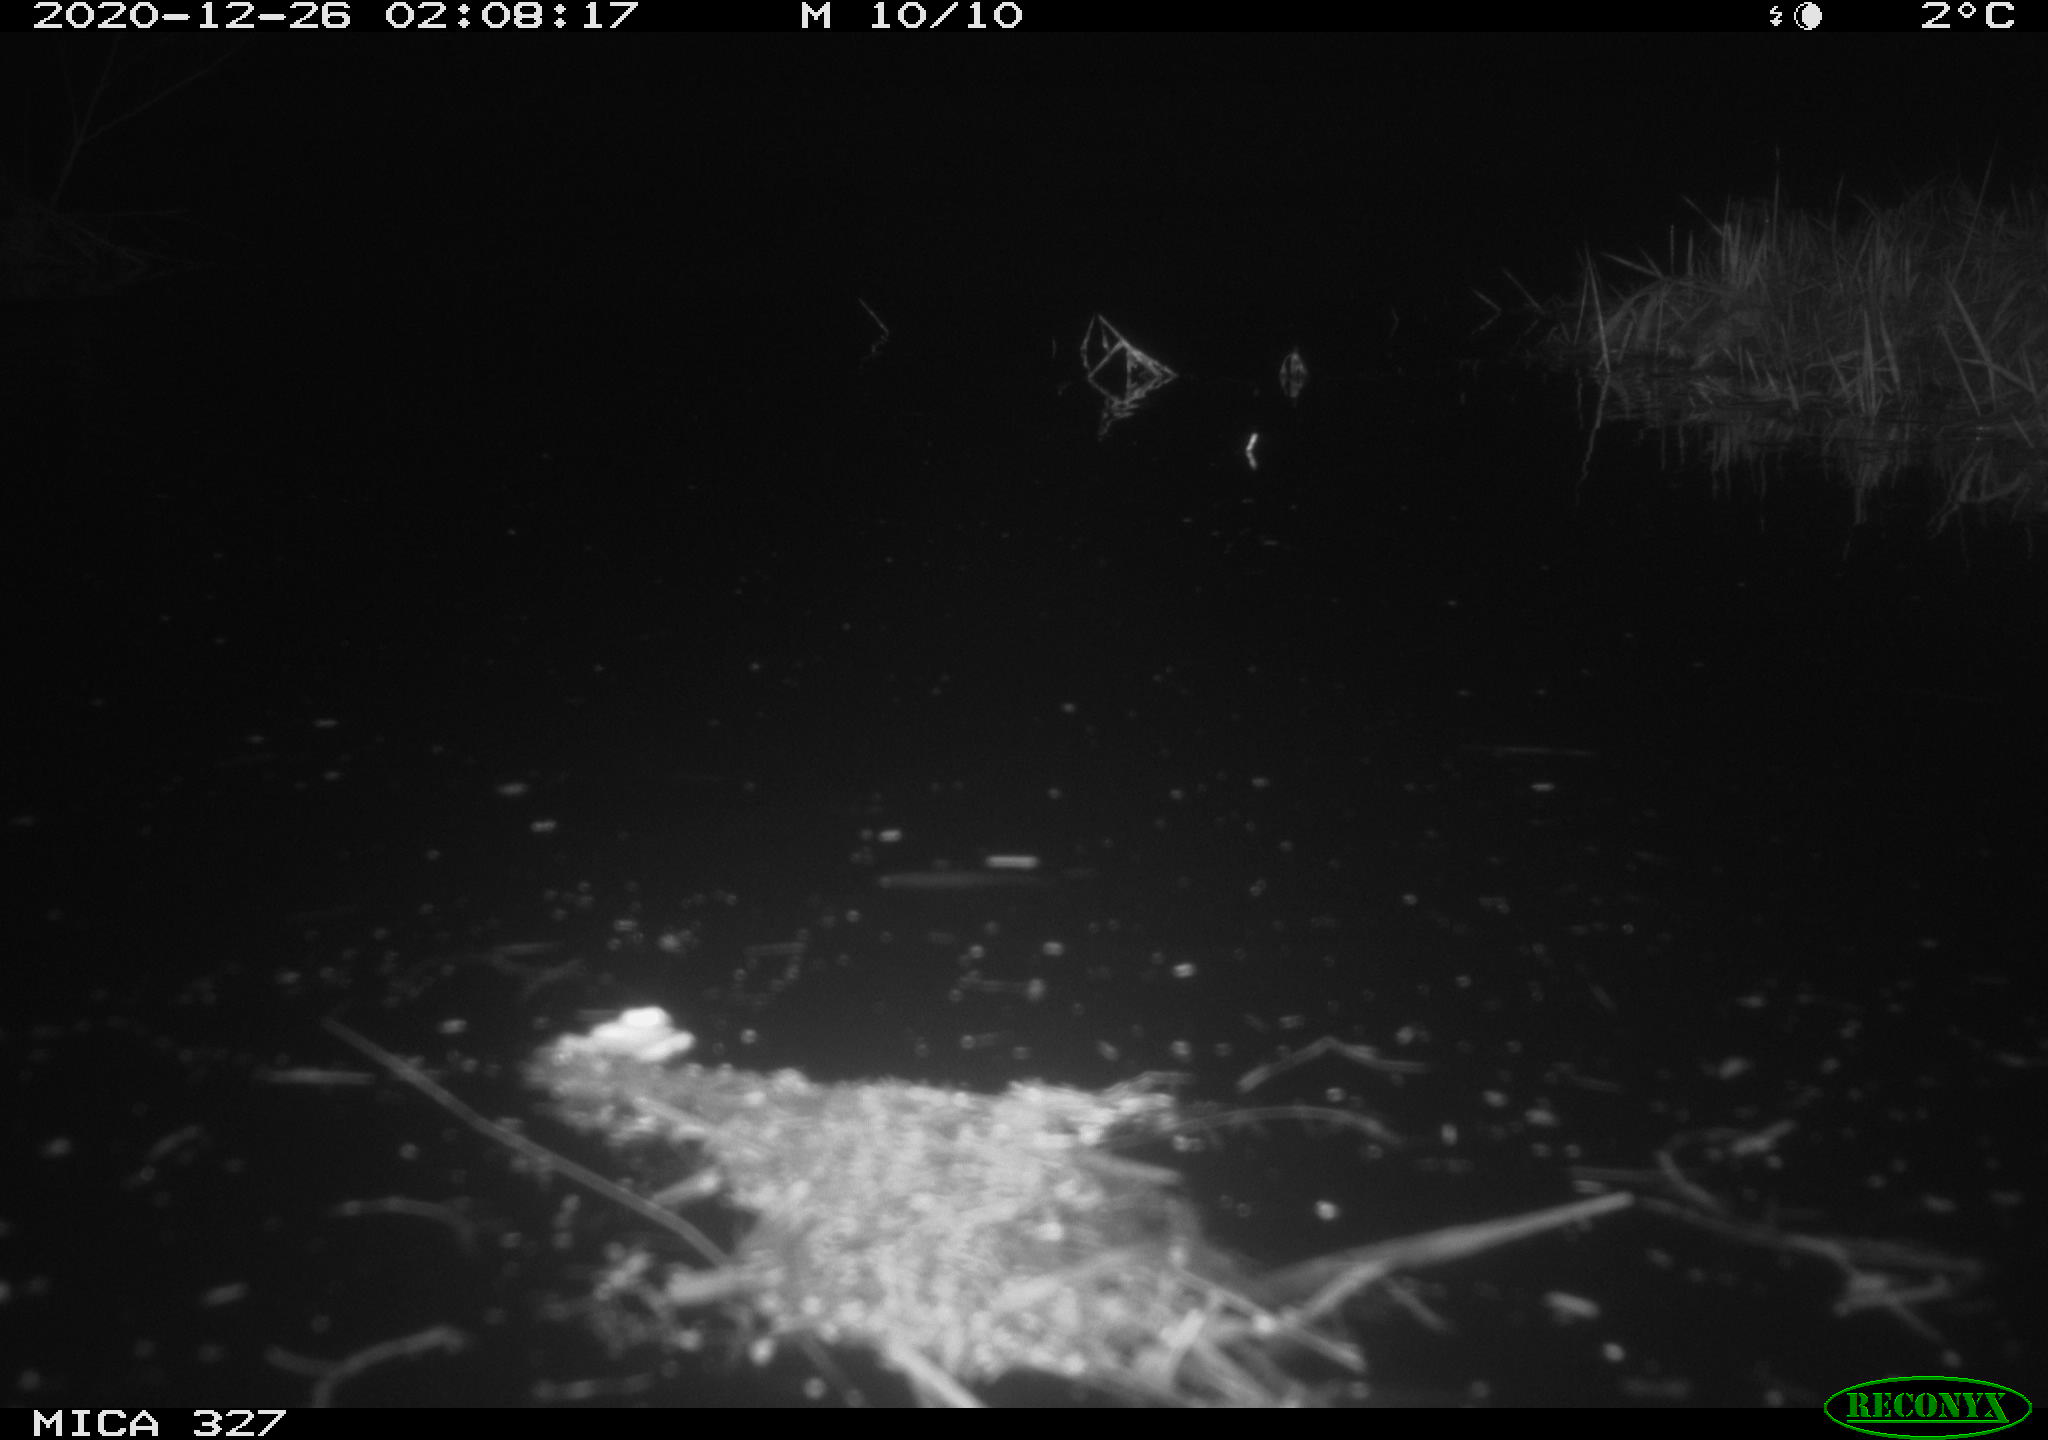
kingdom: Animalia
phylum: Chordata
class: Mammalia
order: Rodentia
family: Cricetidae
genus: Ondatra
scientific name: Ondatra zibethicus
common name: Muskrat
